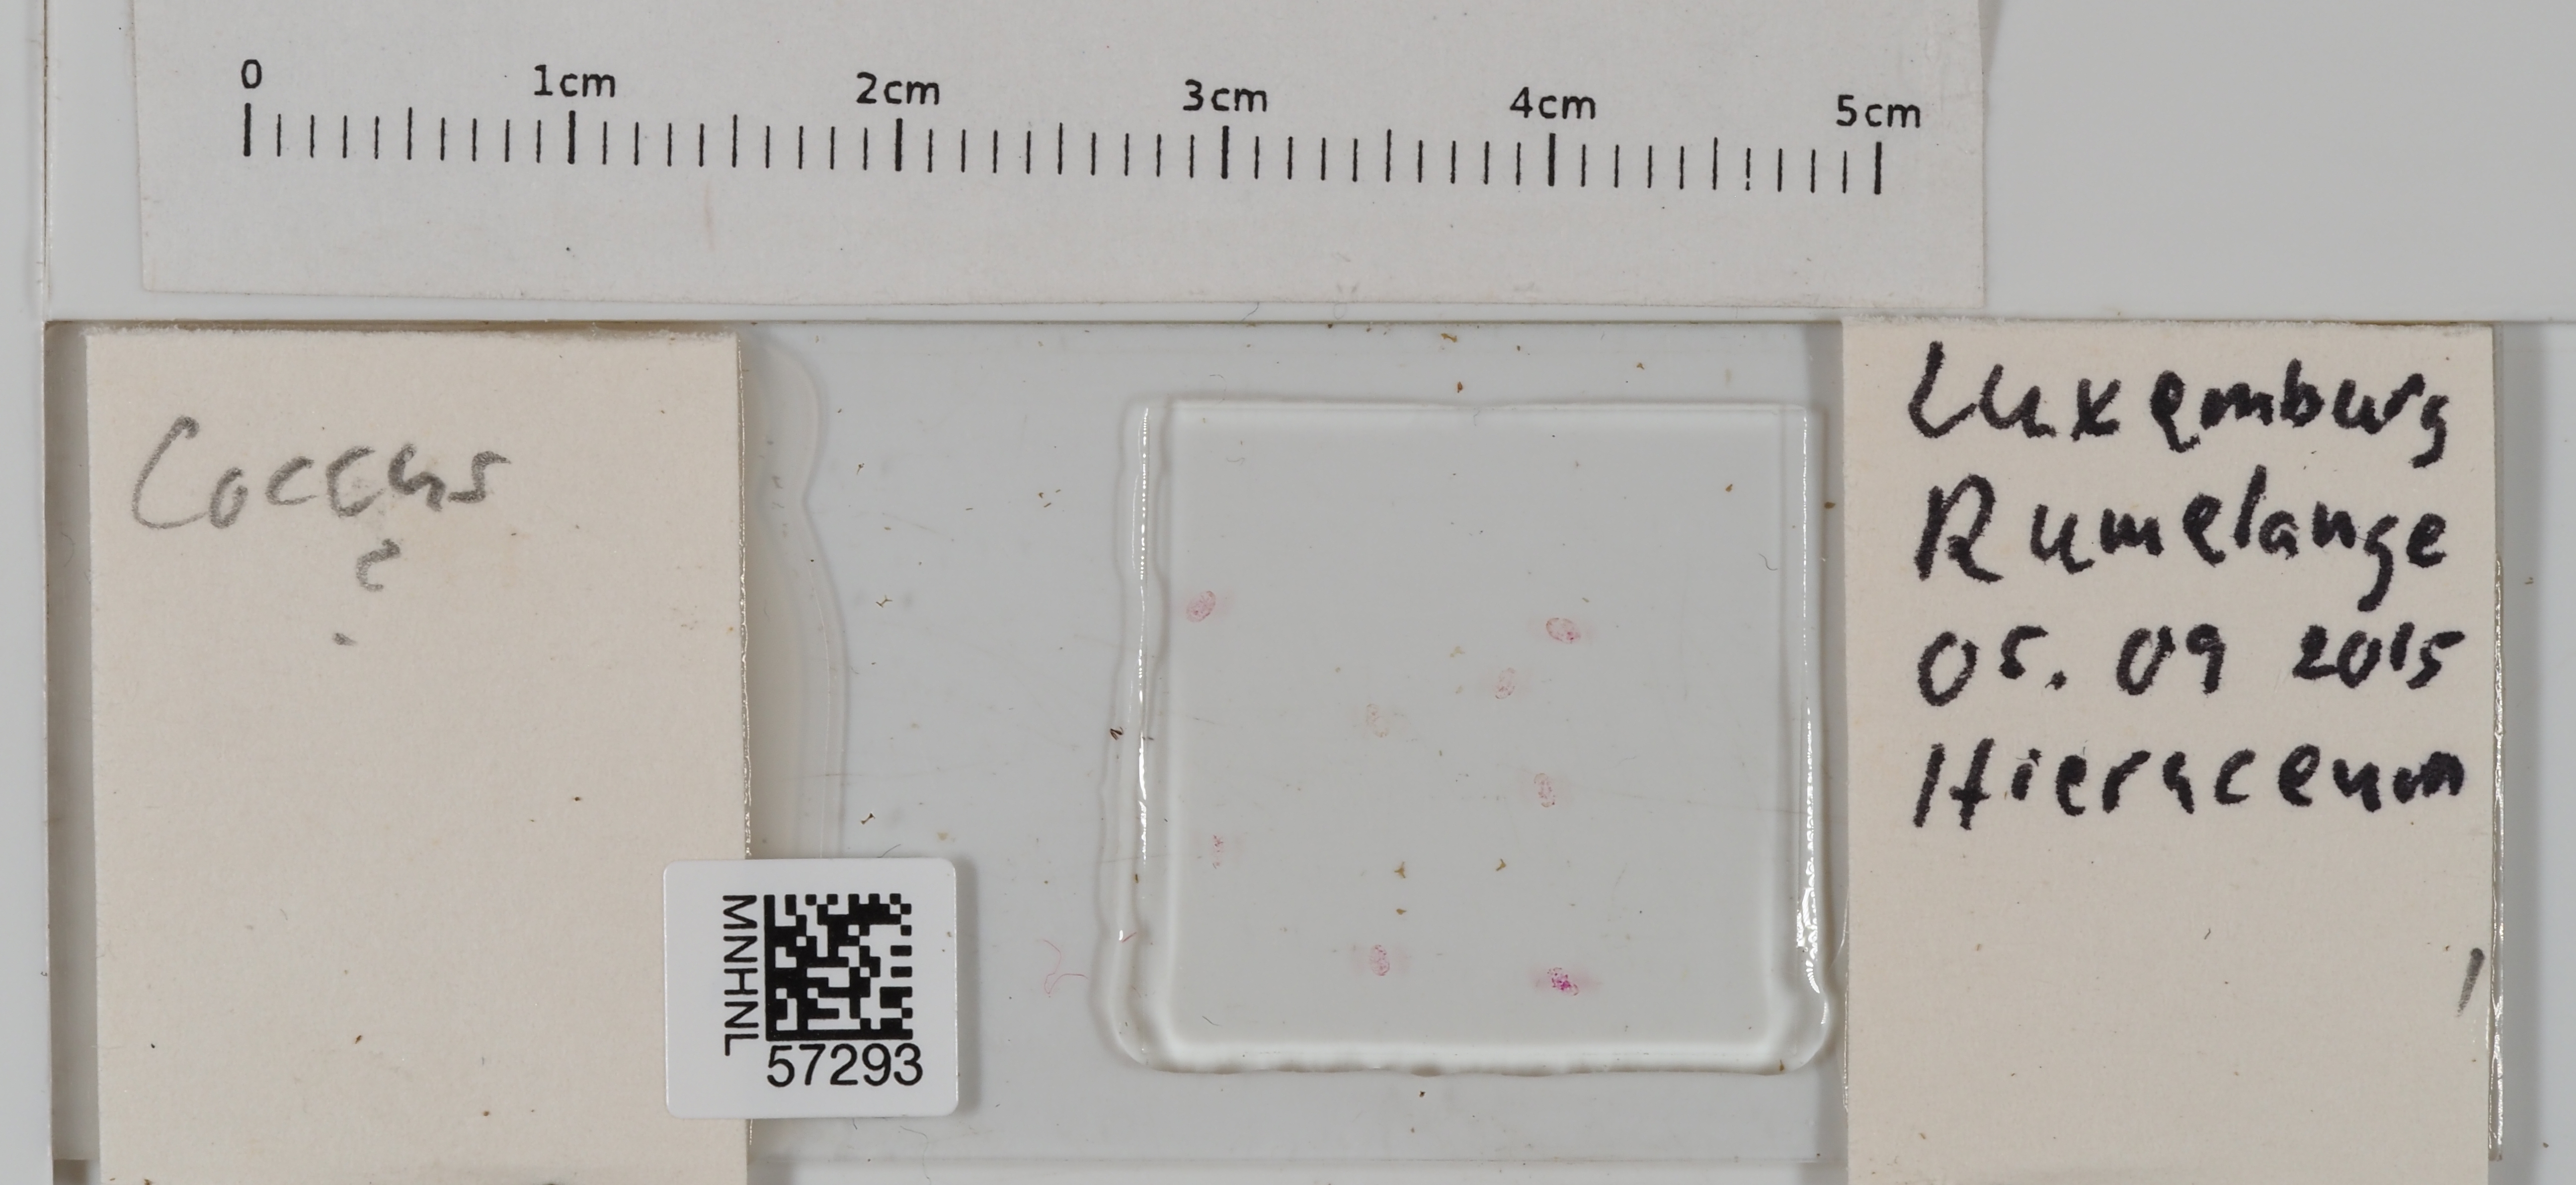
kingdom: Animalia
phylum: Arthropoda
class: Insecta
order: Hemiptera
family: Coccidae
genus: Coccus
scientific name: Coccus
